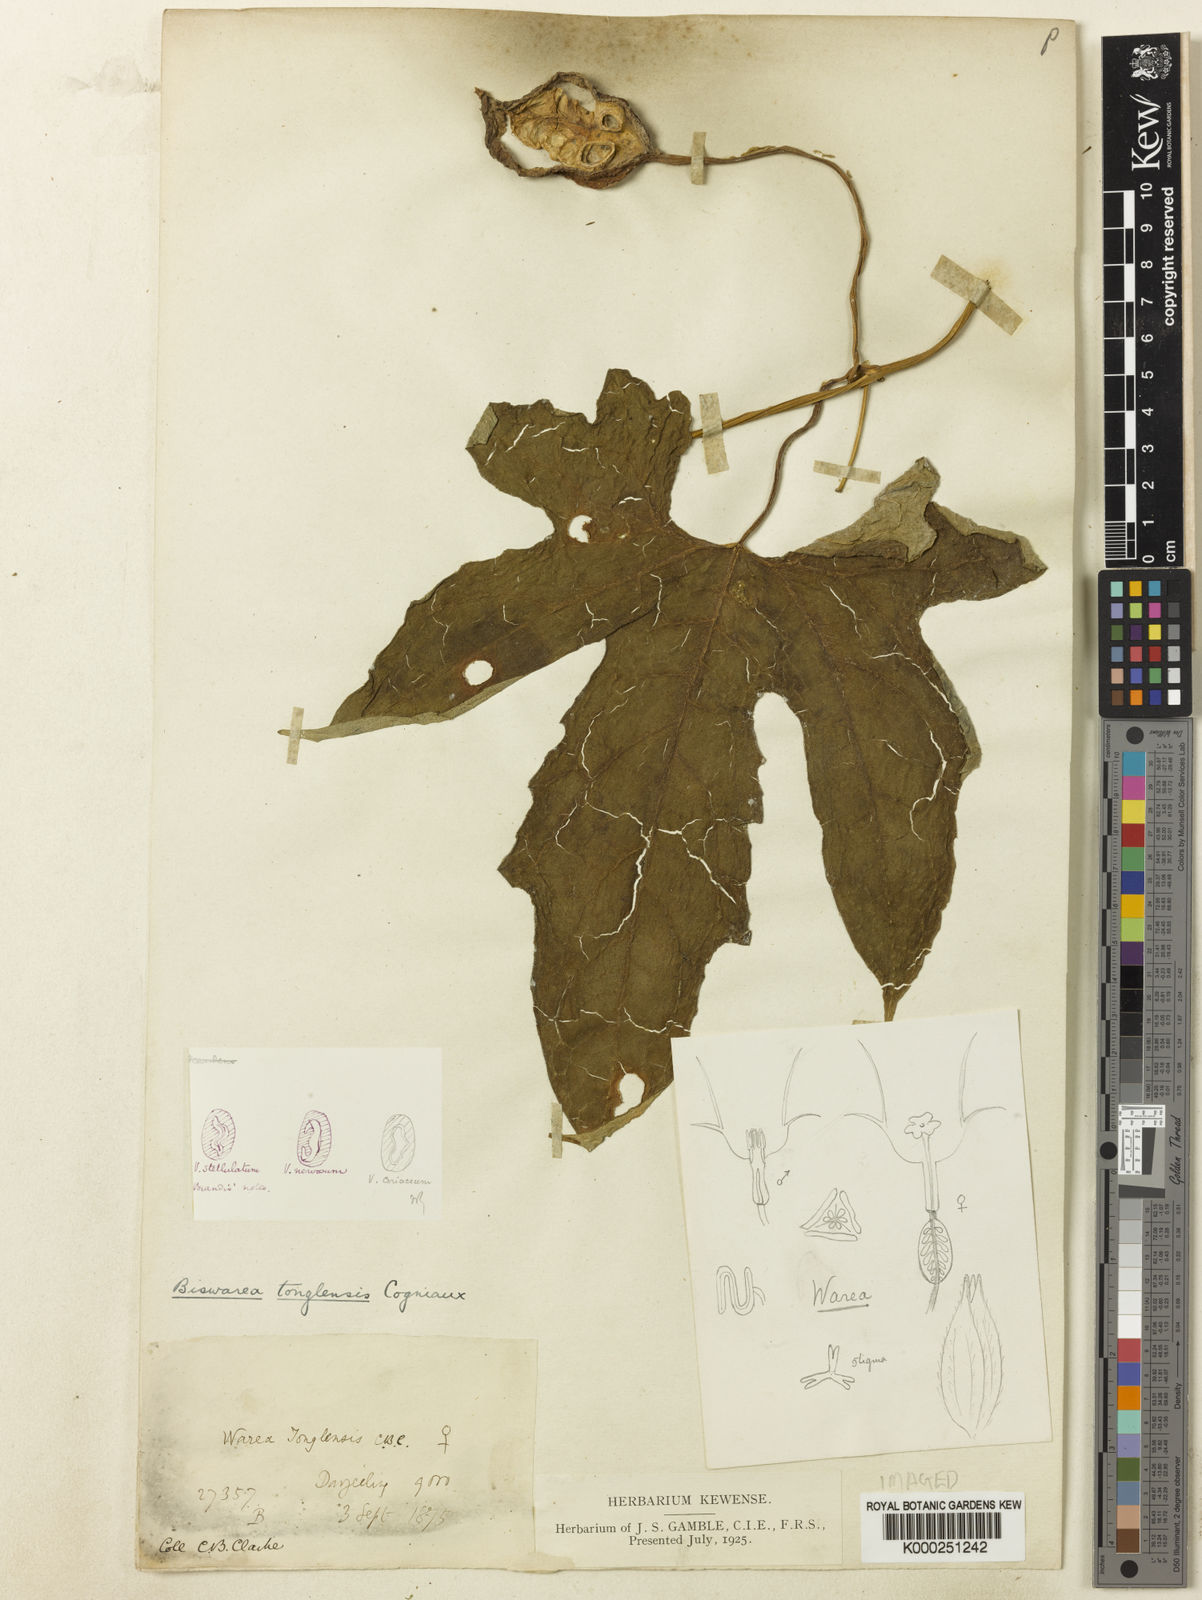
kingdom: Plantae
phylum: Tracheophyta
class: Magnoliopsida
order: Cucurbitales
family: Cucurbitaceae
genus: Herpetospermum
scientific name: Herpetospermum tonglense
